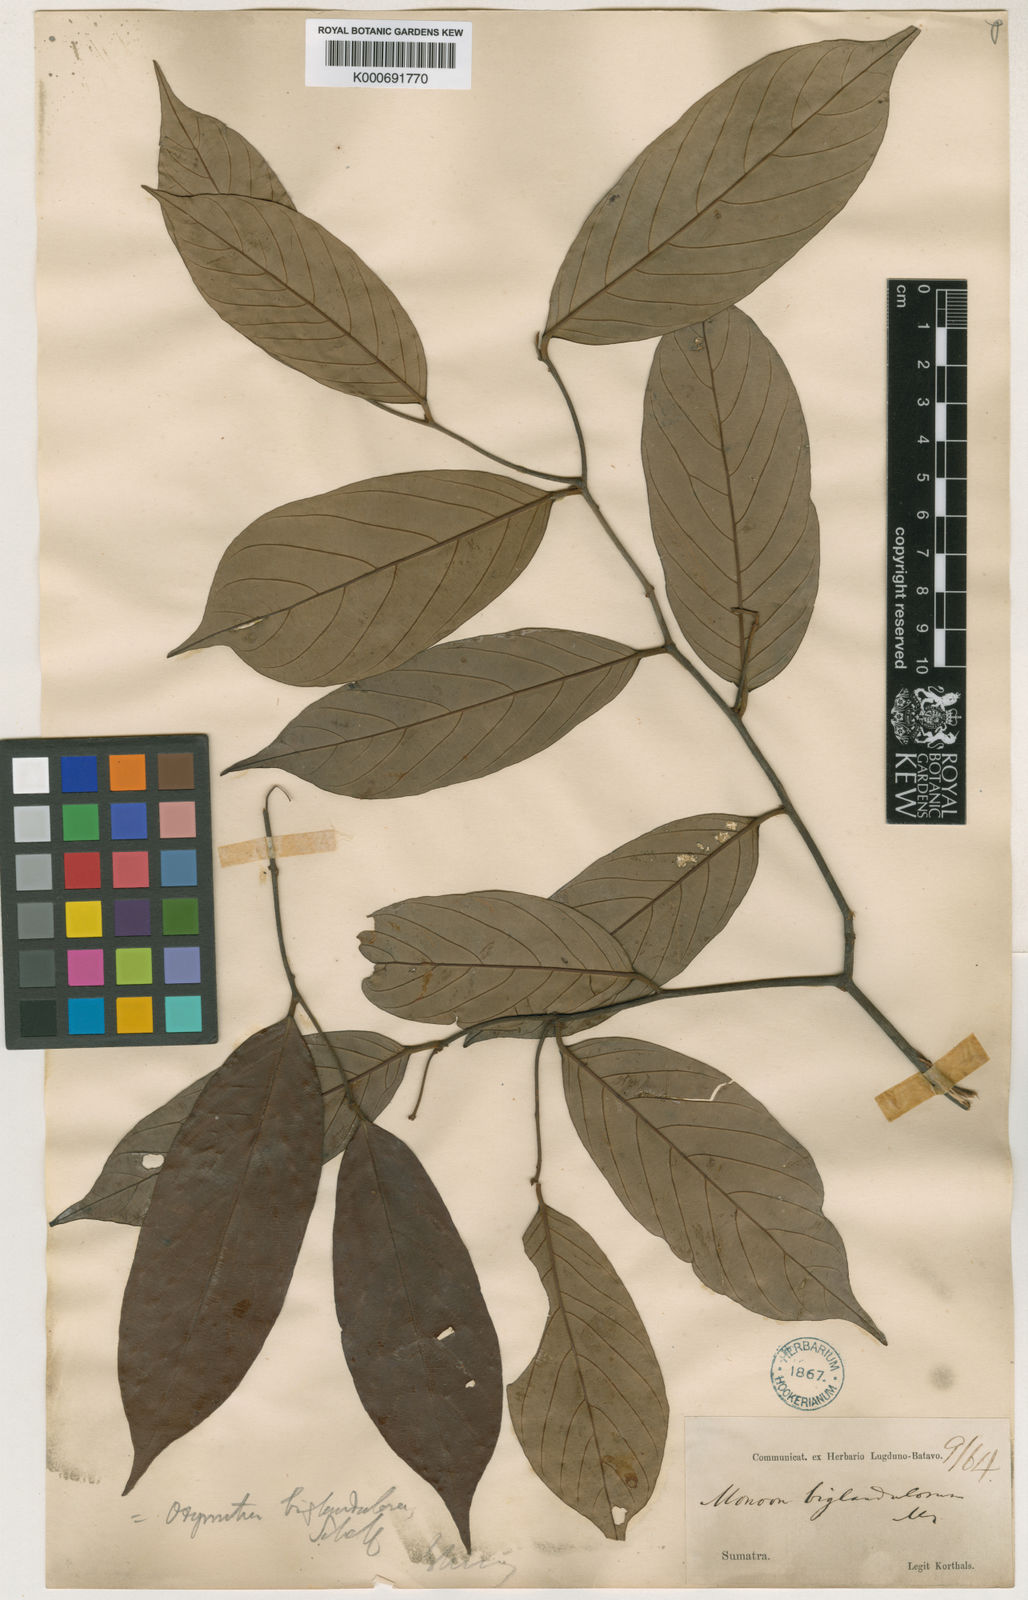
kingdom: Plantae
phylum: Tracheophyta
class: Magnoliopsida
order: Magnoliales
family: Annonaceae
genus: Friesodielsia
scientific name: Friesodielsia biglandulosa
